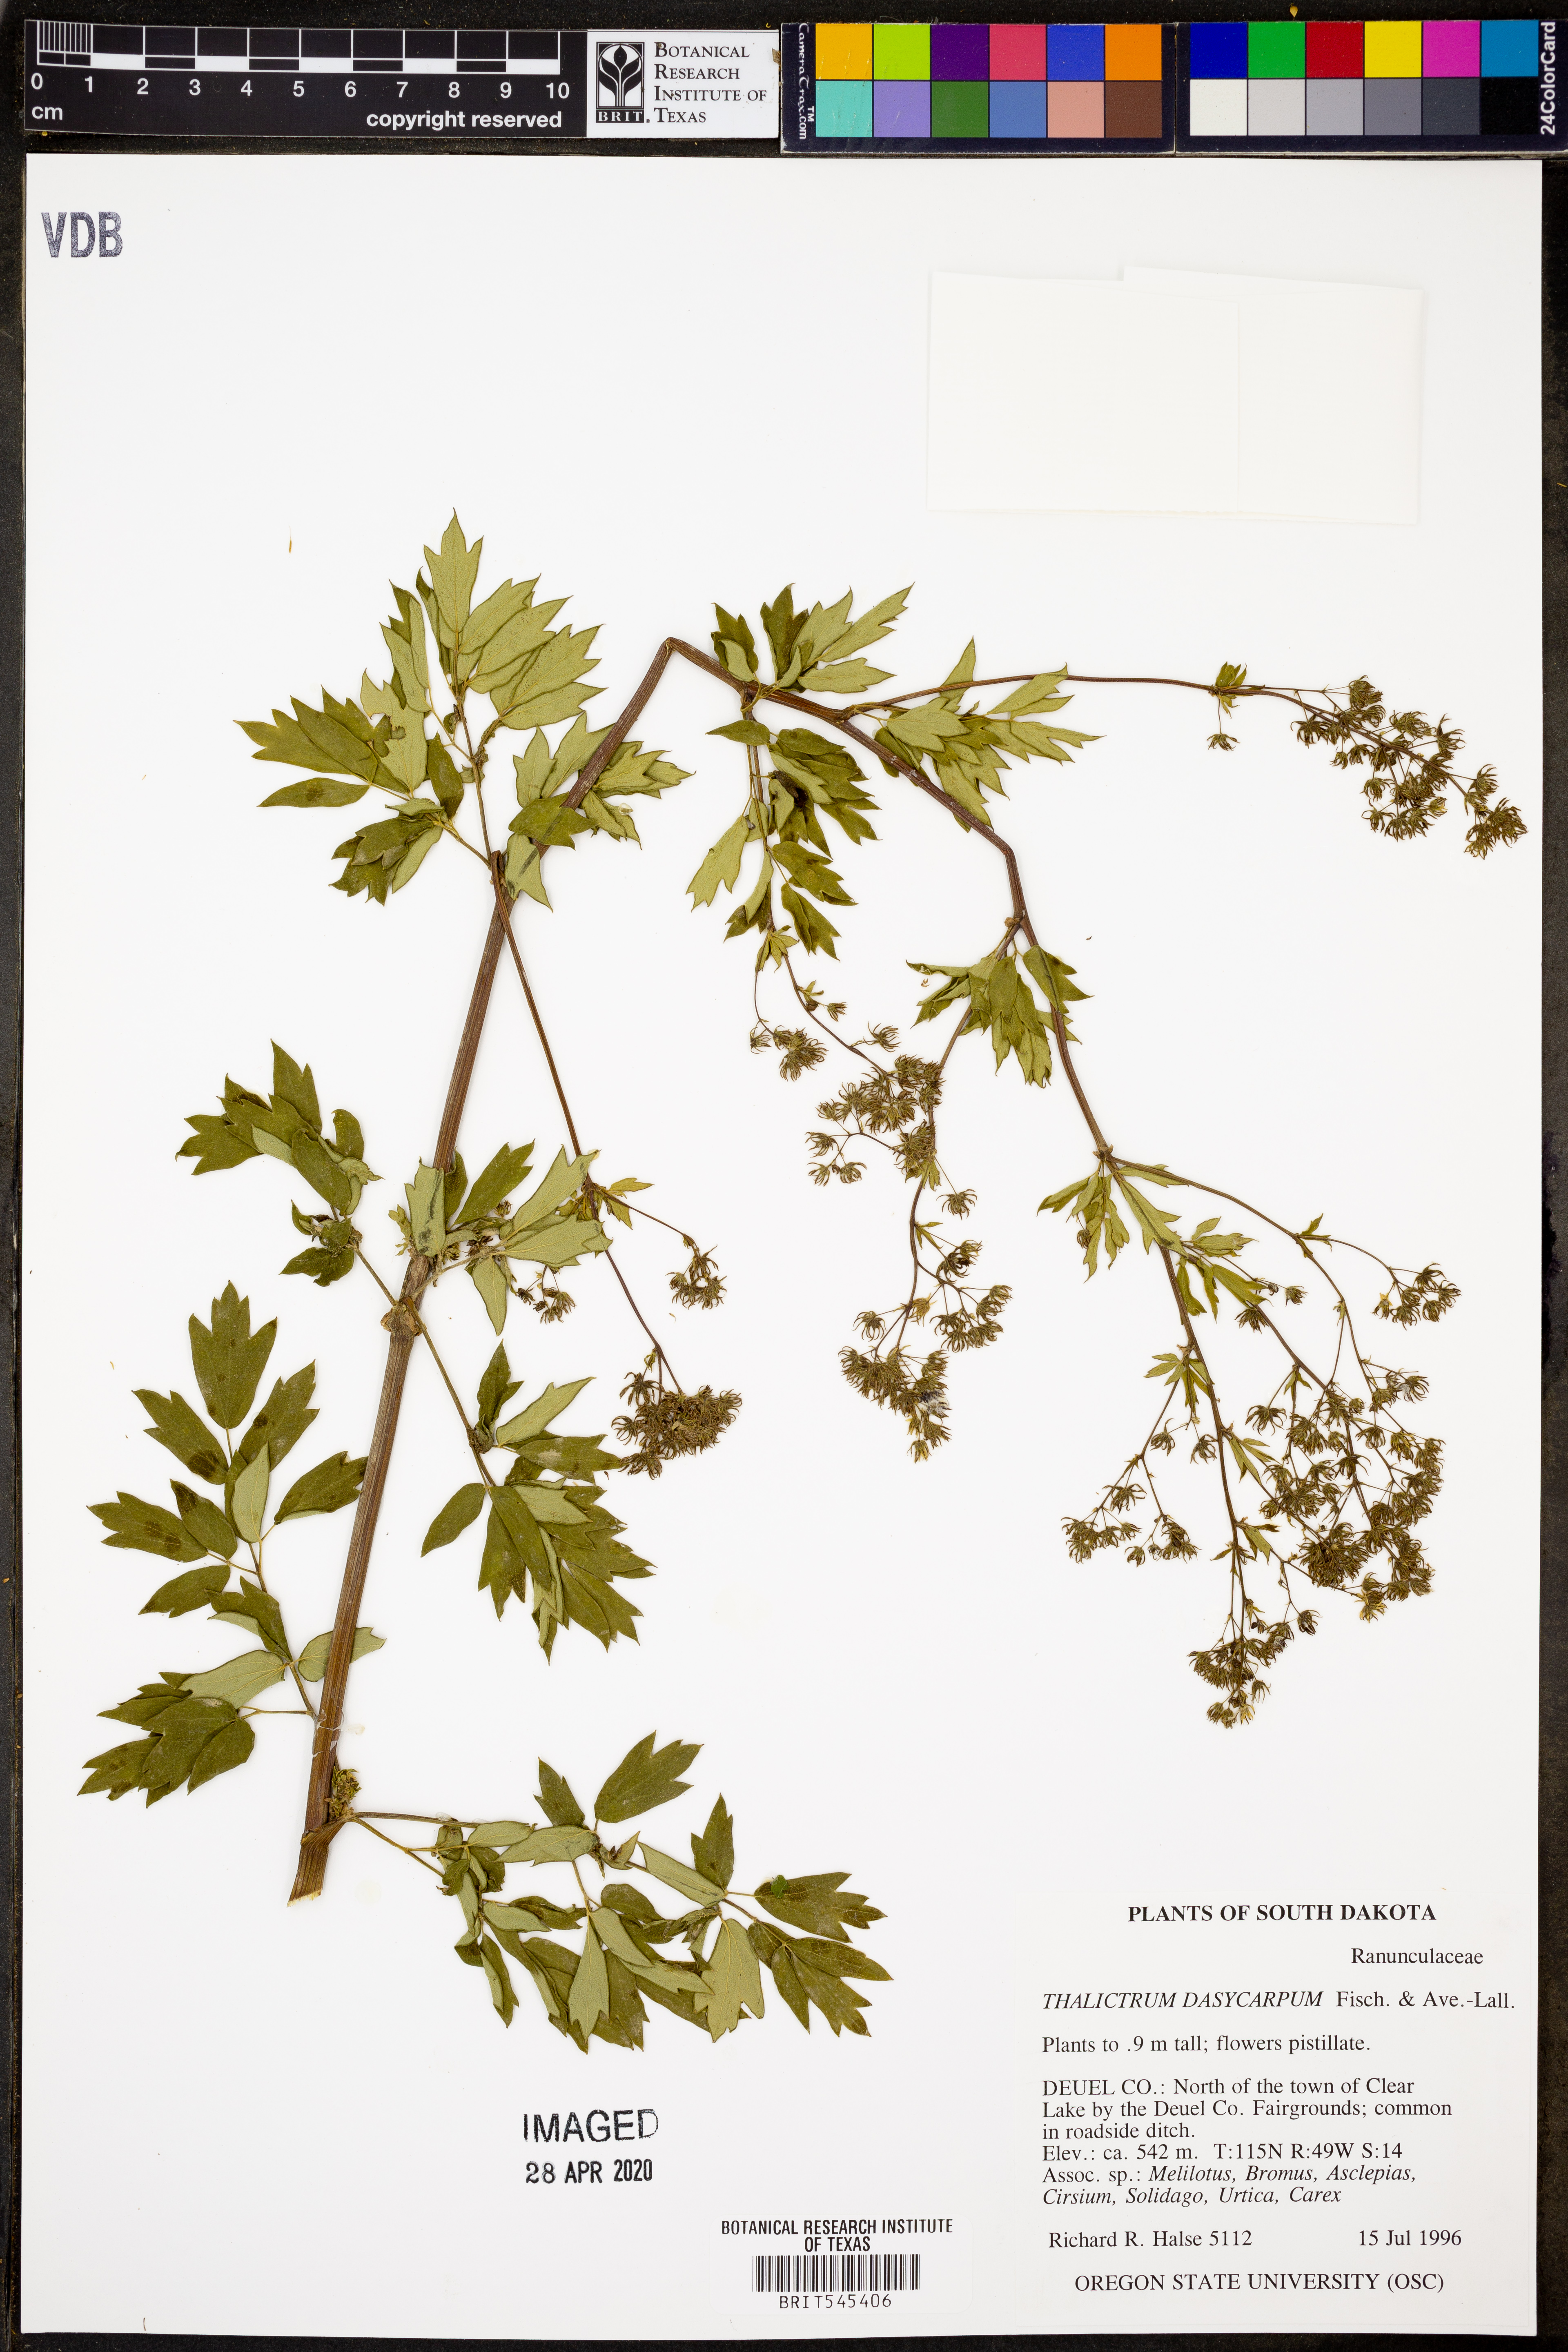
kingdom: Plantae
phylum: Tracheophyta
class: Magnoliopsida
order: Ranunculales
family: Ranunculaceae
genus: Thalictrum
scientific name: Thalictrum dasycarpum
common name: Purple meadow-rue
